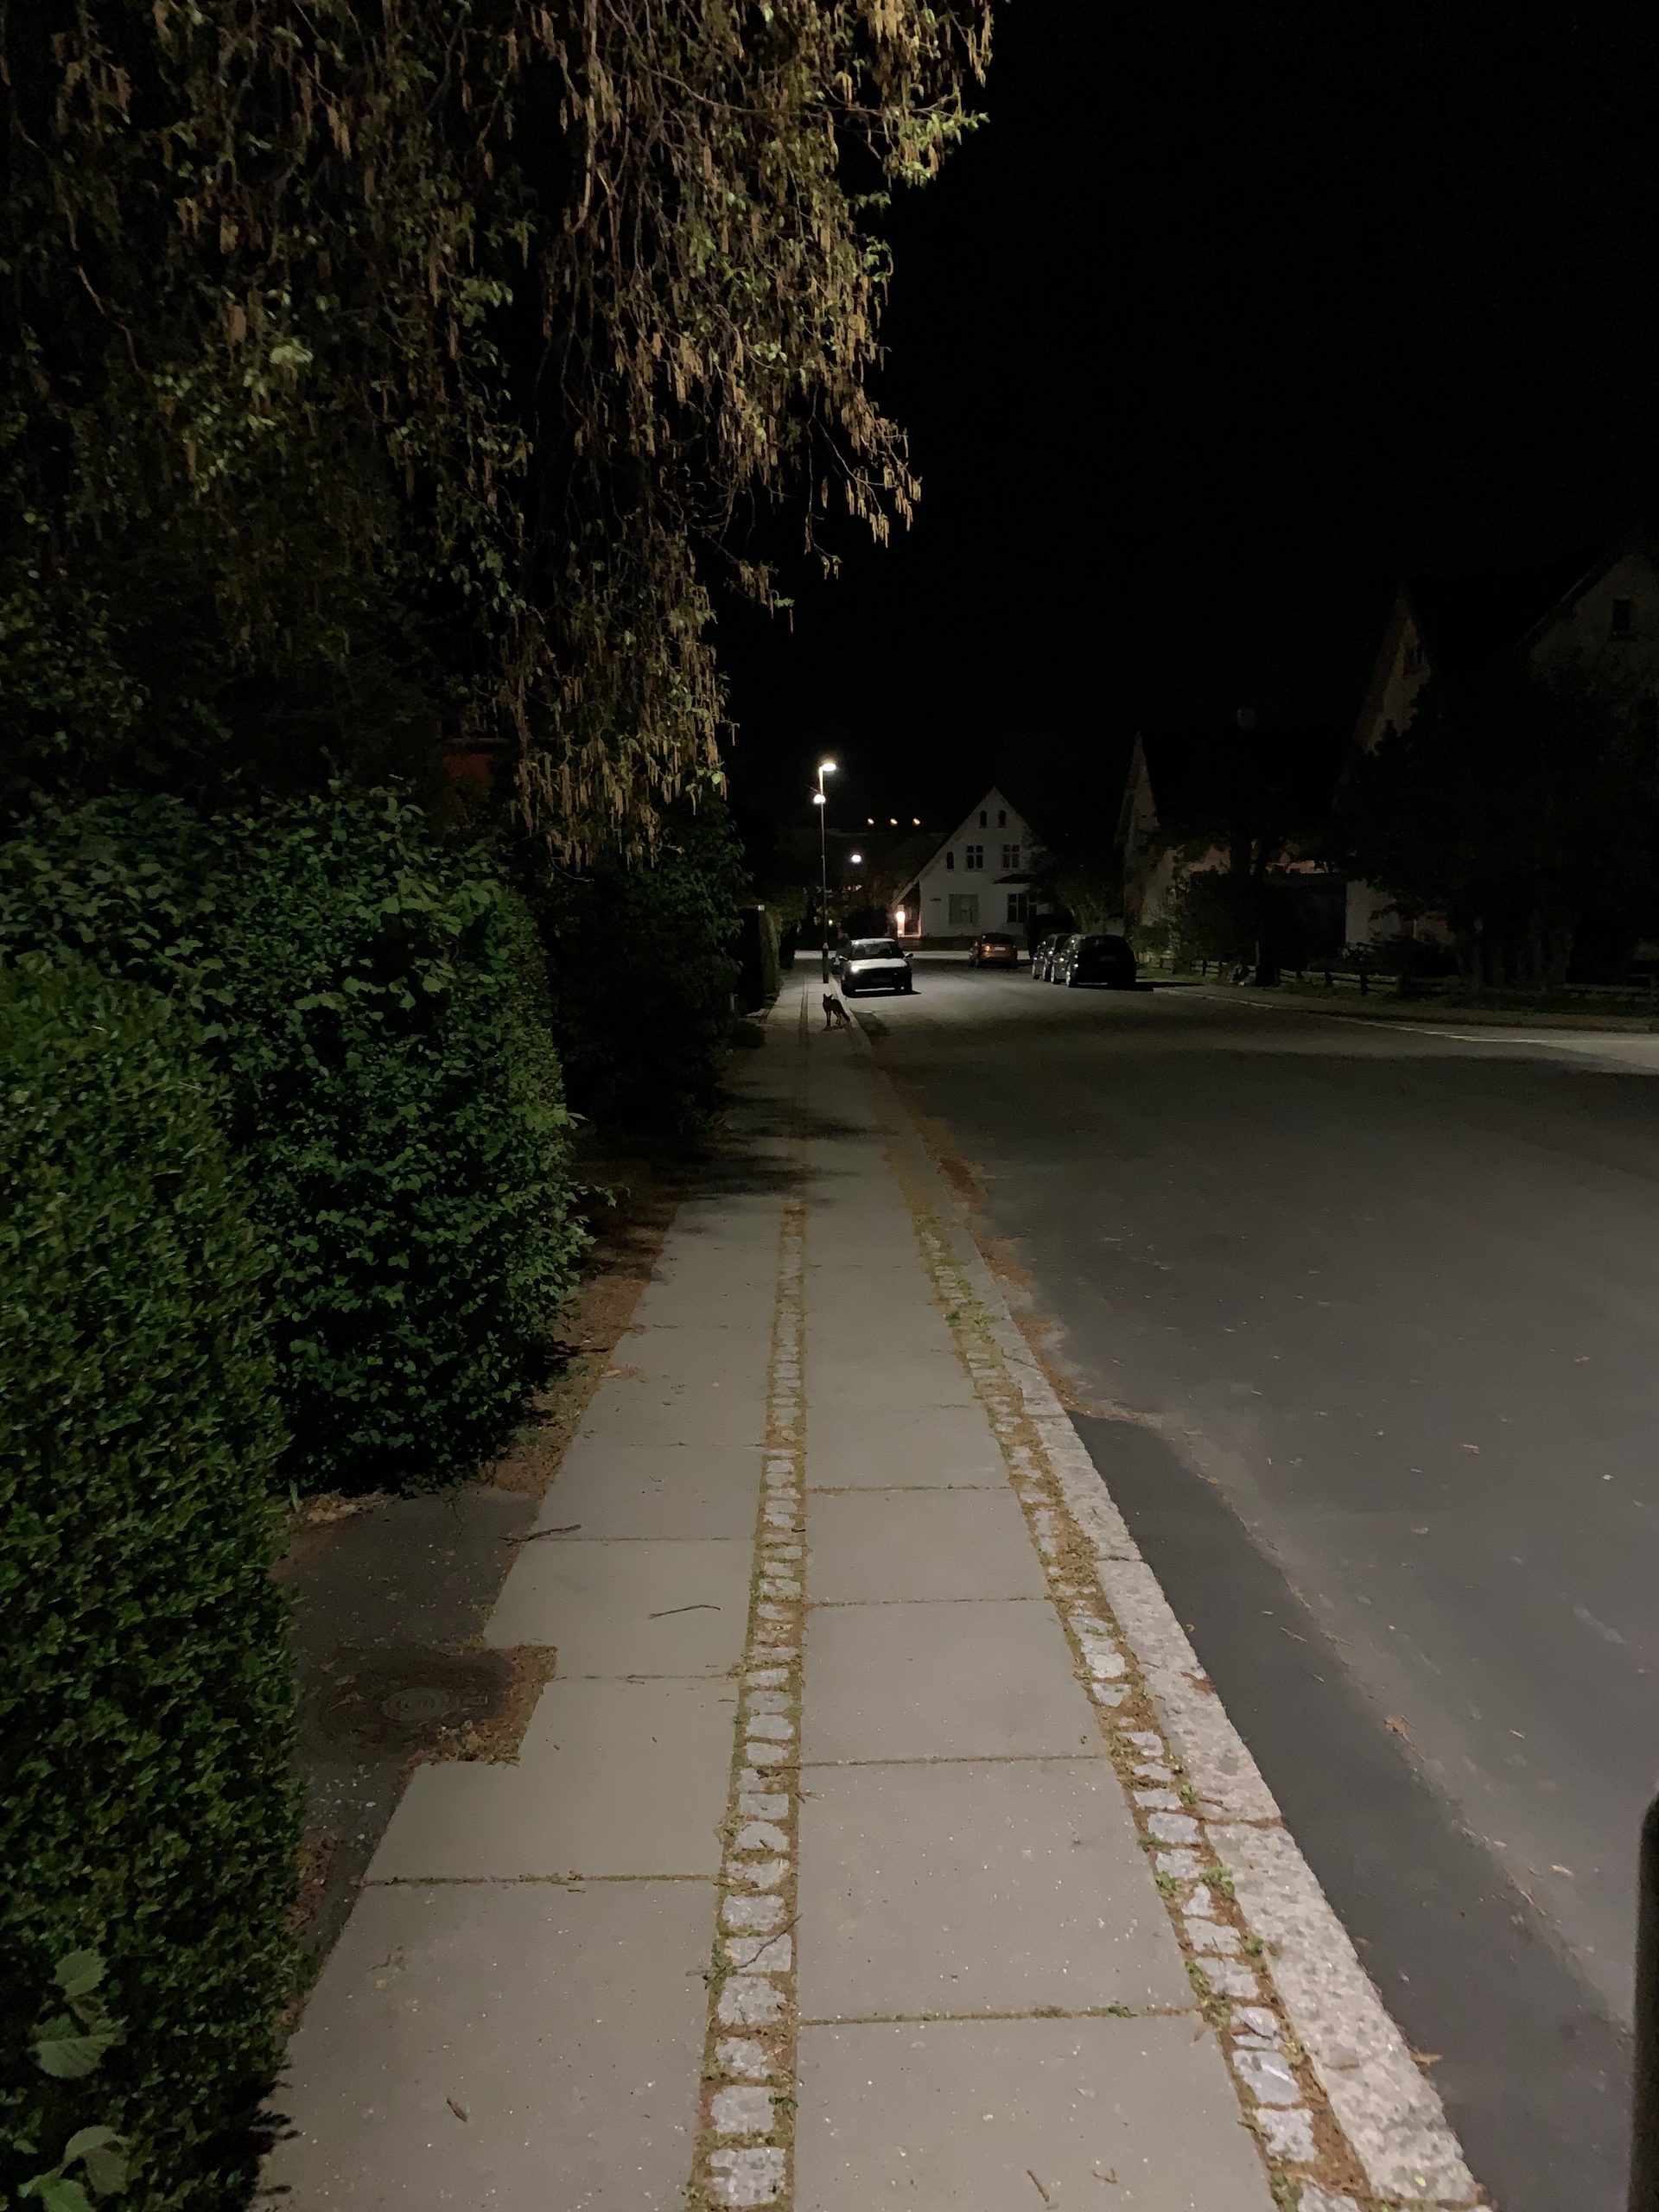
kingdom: Animalia
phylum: Chordata
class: Mammalia
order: Carnivora
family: Canidae
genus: Vulpes
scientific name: Vulpes vulpes
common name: Ræv
